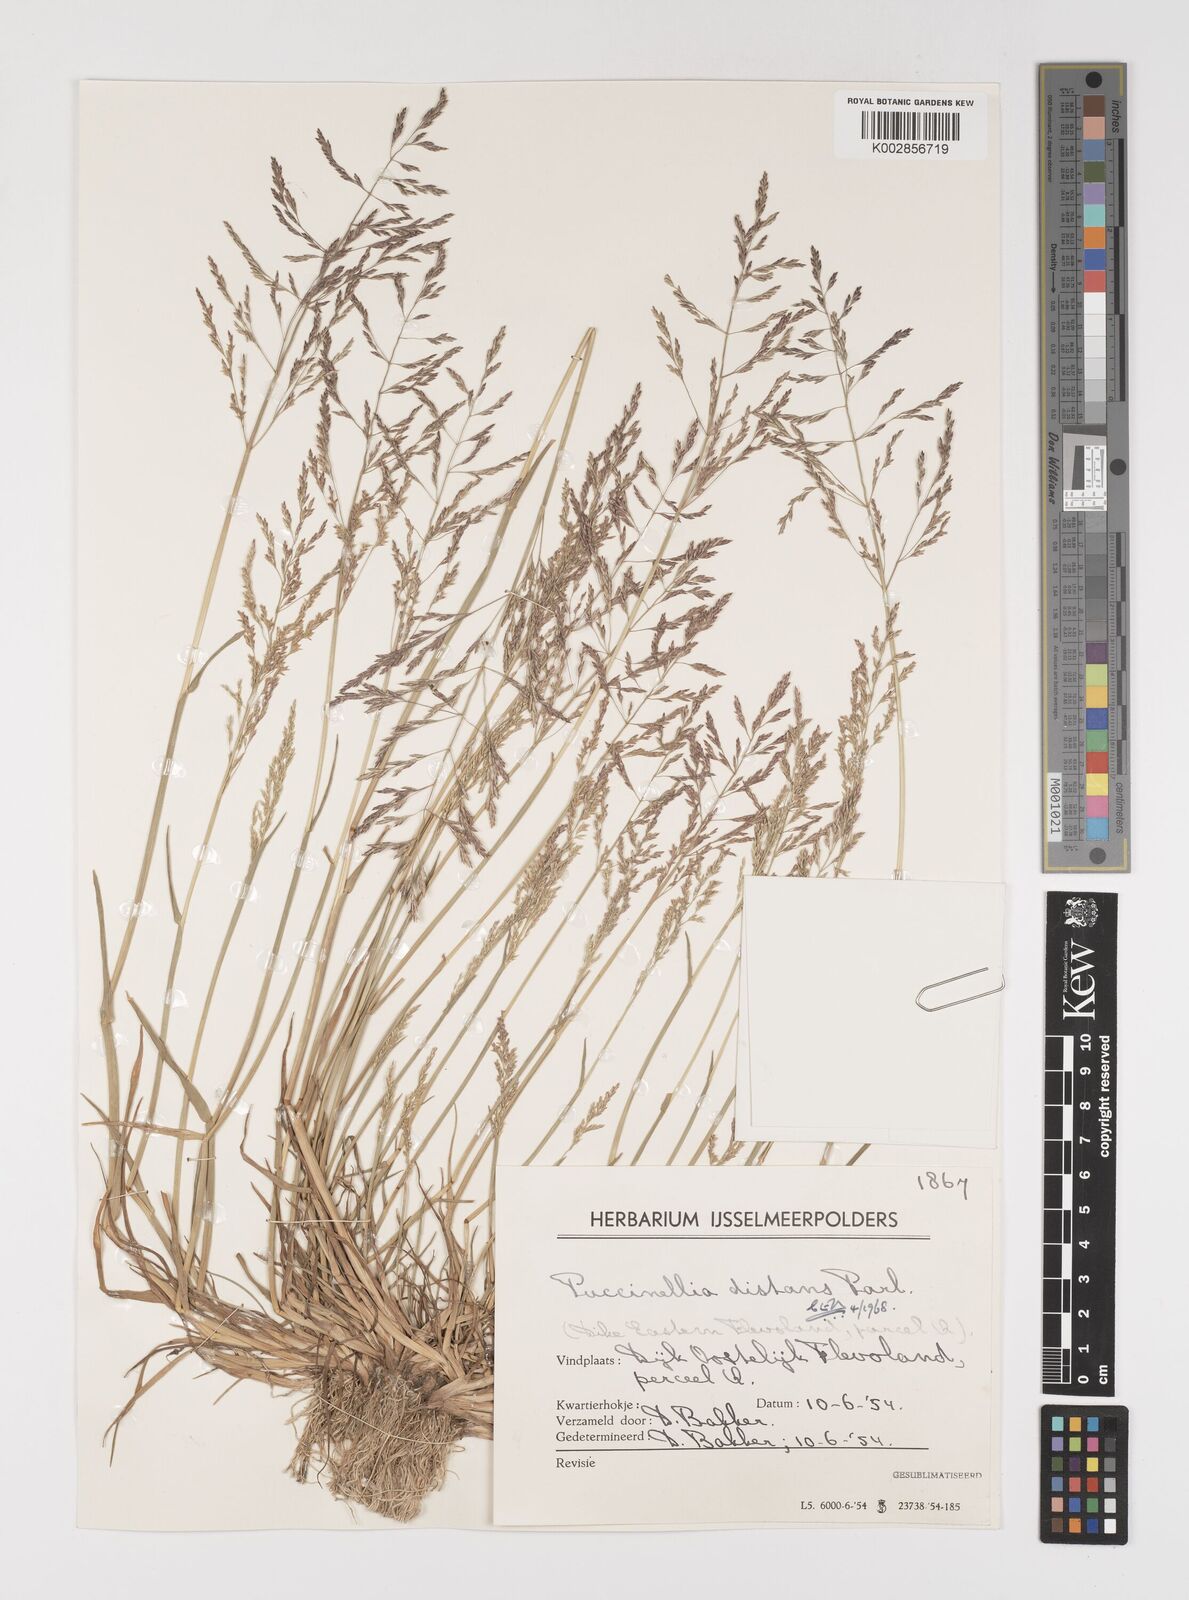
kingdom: Plantae
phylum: Tracheophyta
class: Liliopsida
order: Poales
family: Poaceae
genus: Puccinellia
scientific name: Puccinellia
